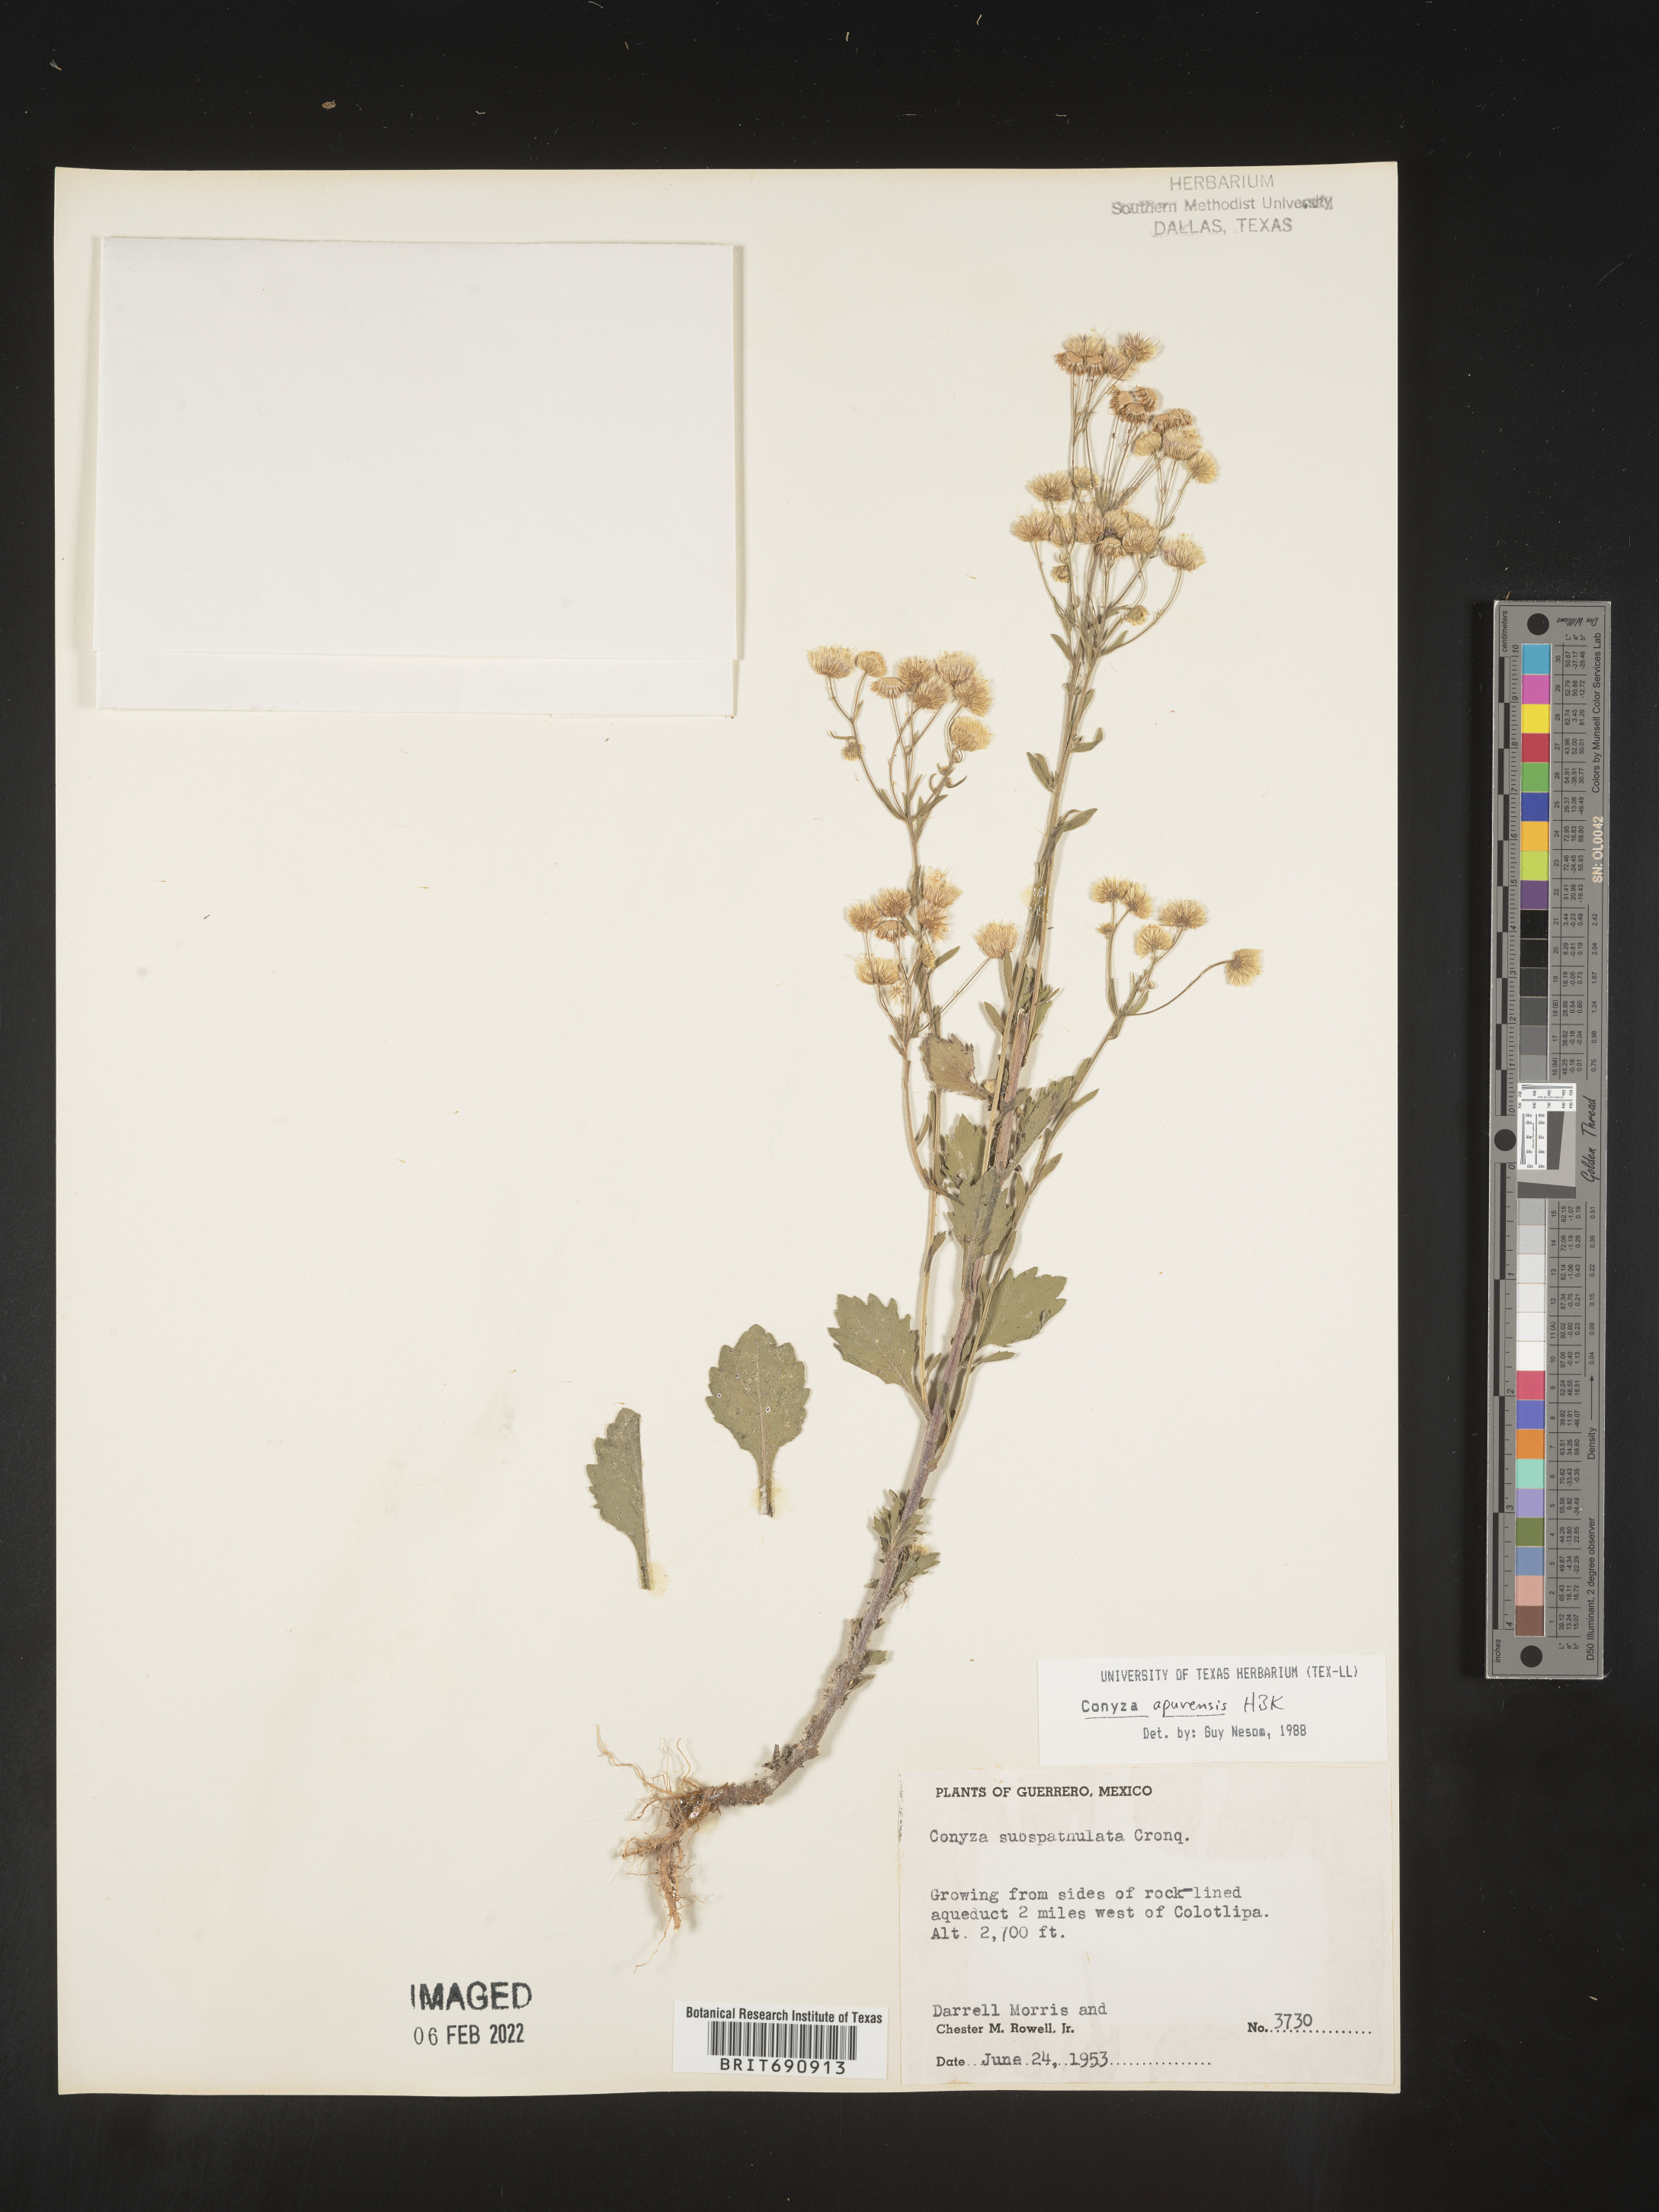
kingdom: Plantae
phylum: Tracheophyta
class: Magnoliopsida
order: Asterales
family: Asteraceae
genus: Erigeron
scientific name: Erigeron laevigatus
